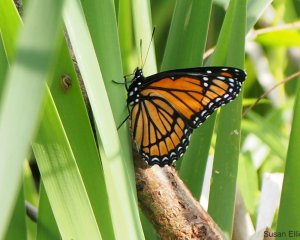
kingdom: Animalia
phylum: Arthropoda
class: Insecta
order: Lepidoptera
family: Nymphalidae
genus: Limenitis
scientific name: Limenitis archippus
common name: Viceroy
